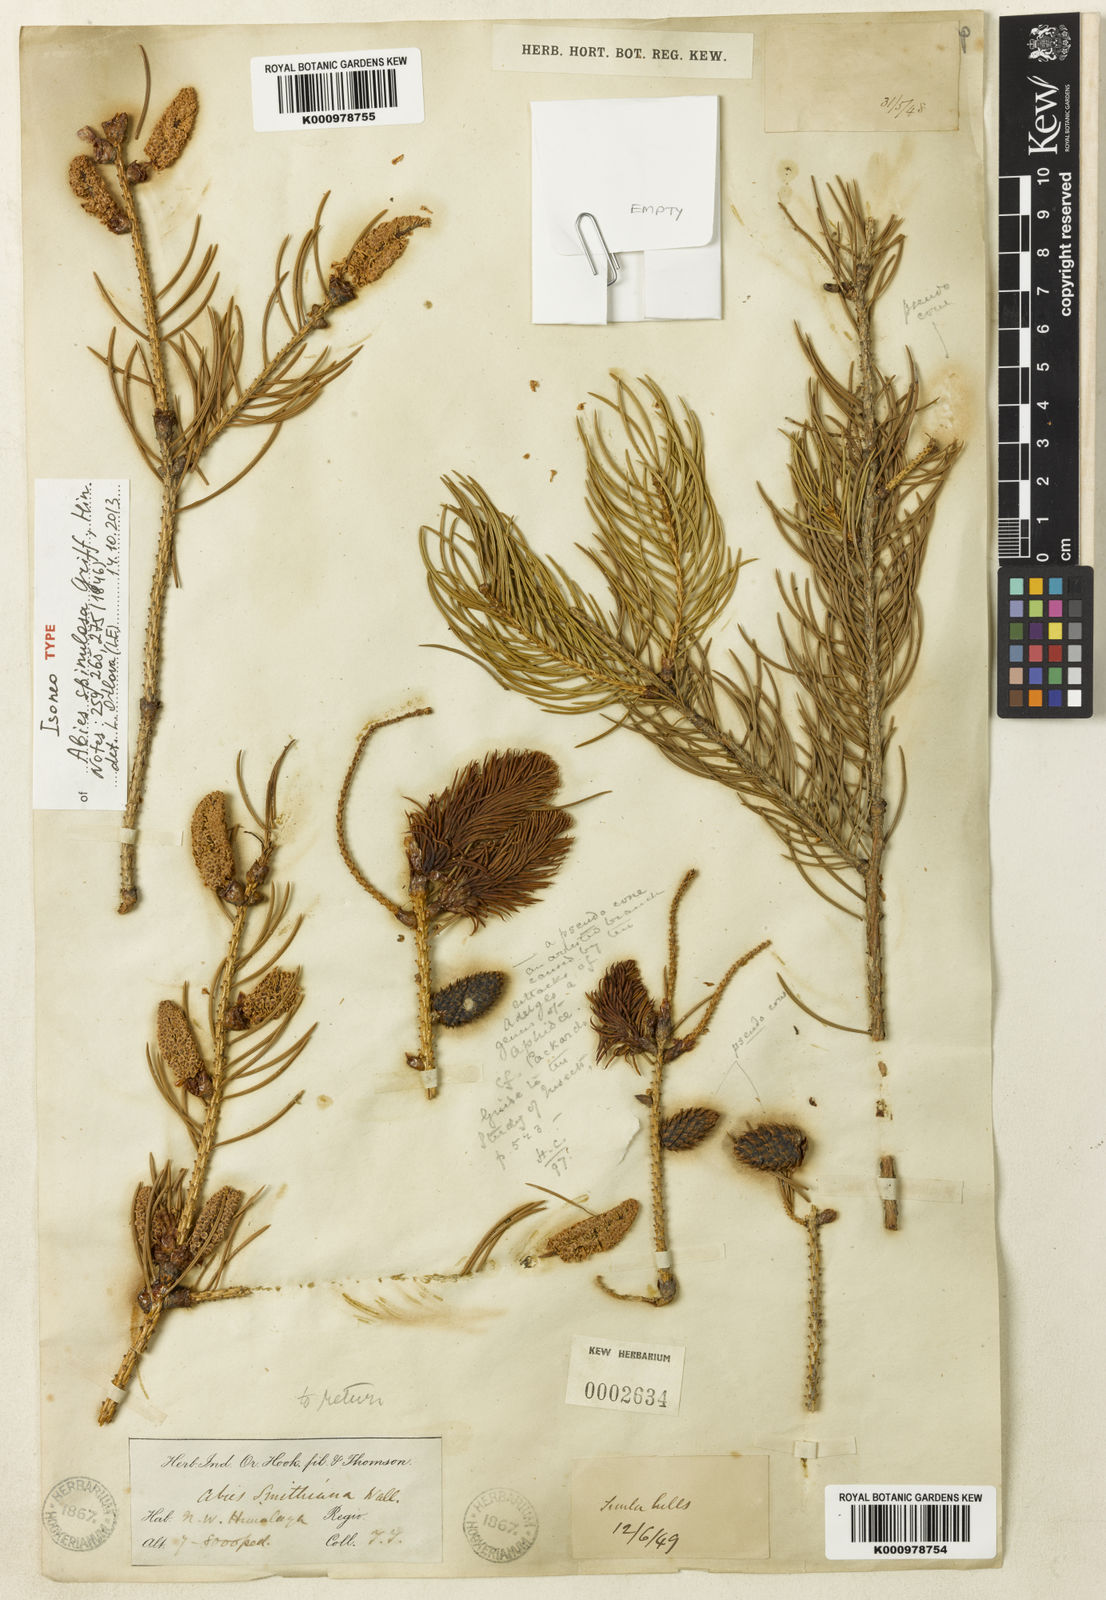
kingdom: Plantae
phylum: Tracheophyta
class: Pinopsida
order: Pinales
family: Pinaceae
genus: Picea
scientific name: Picea spinulosa
